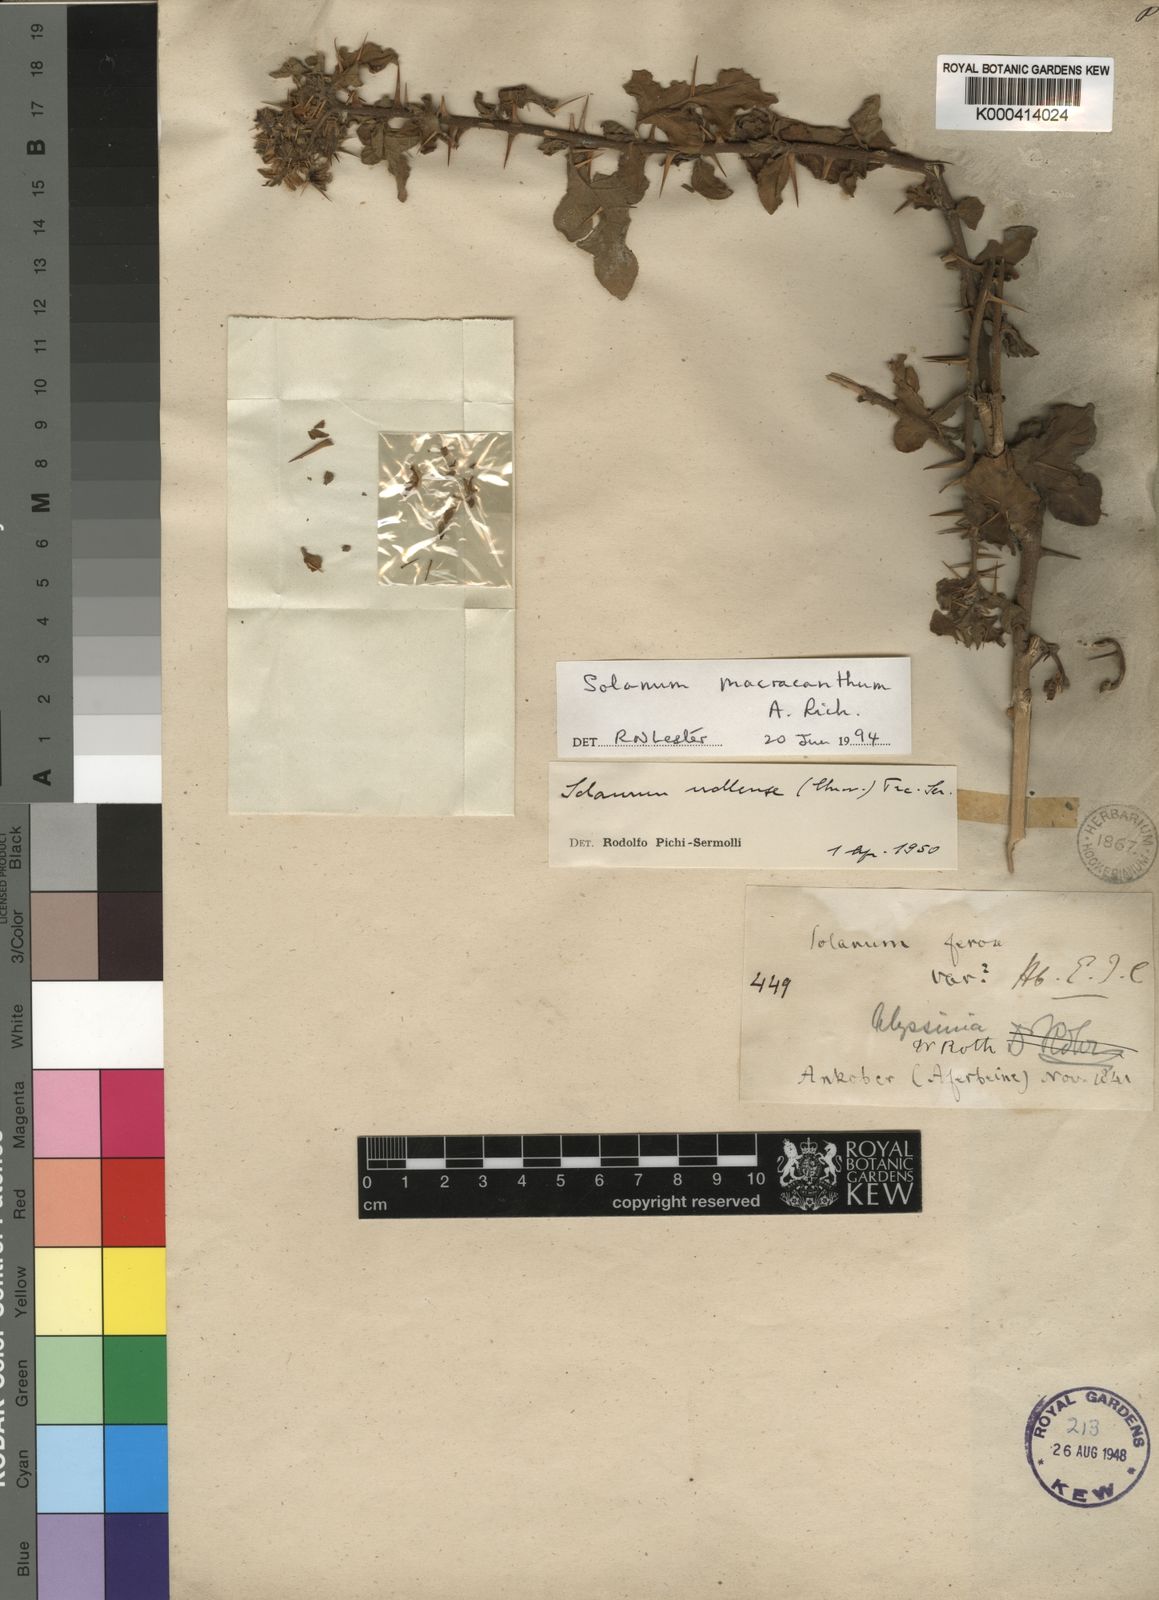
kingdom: Plantae
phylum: Tracheophyta
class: Magnoliopsida
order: Solanales
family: Solanaceae
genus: Solanum
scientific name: Solanum violaceum
